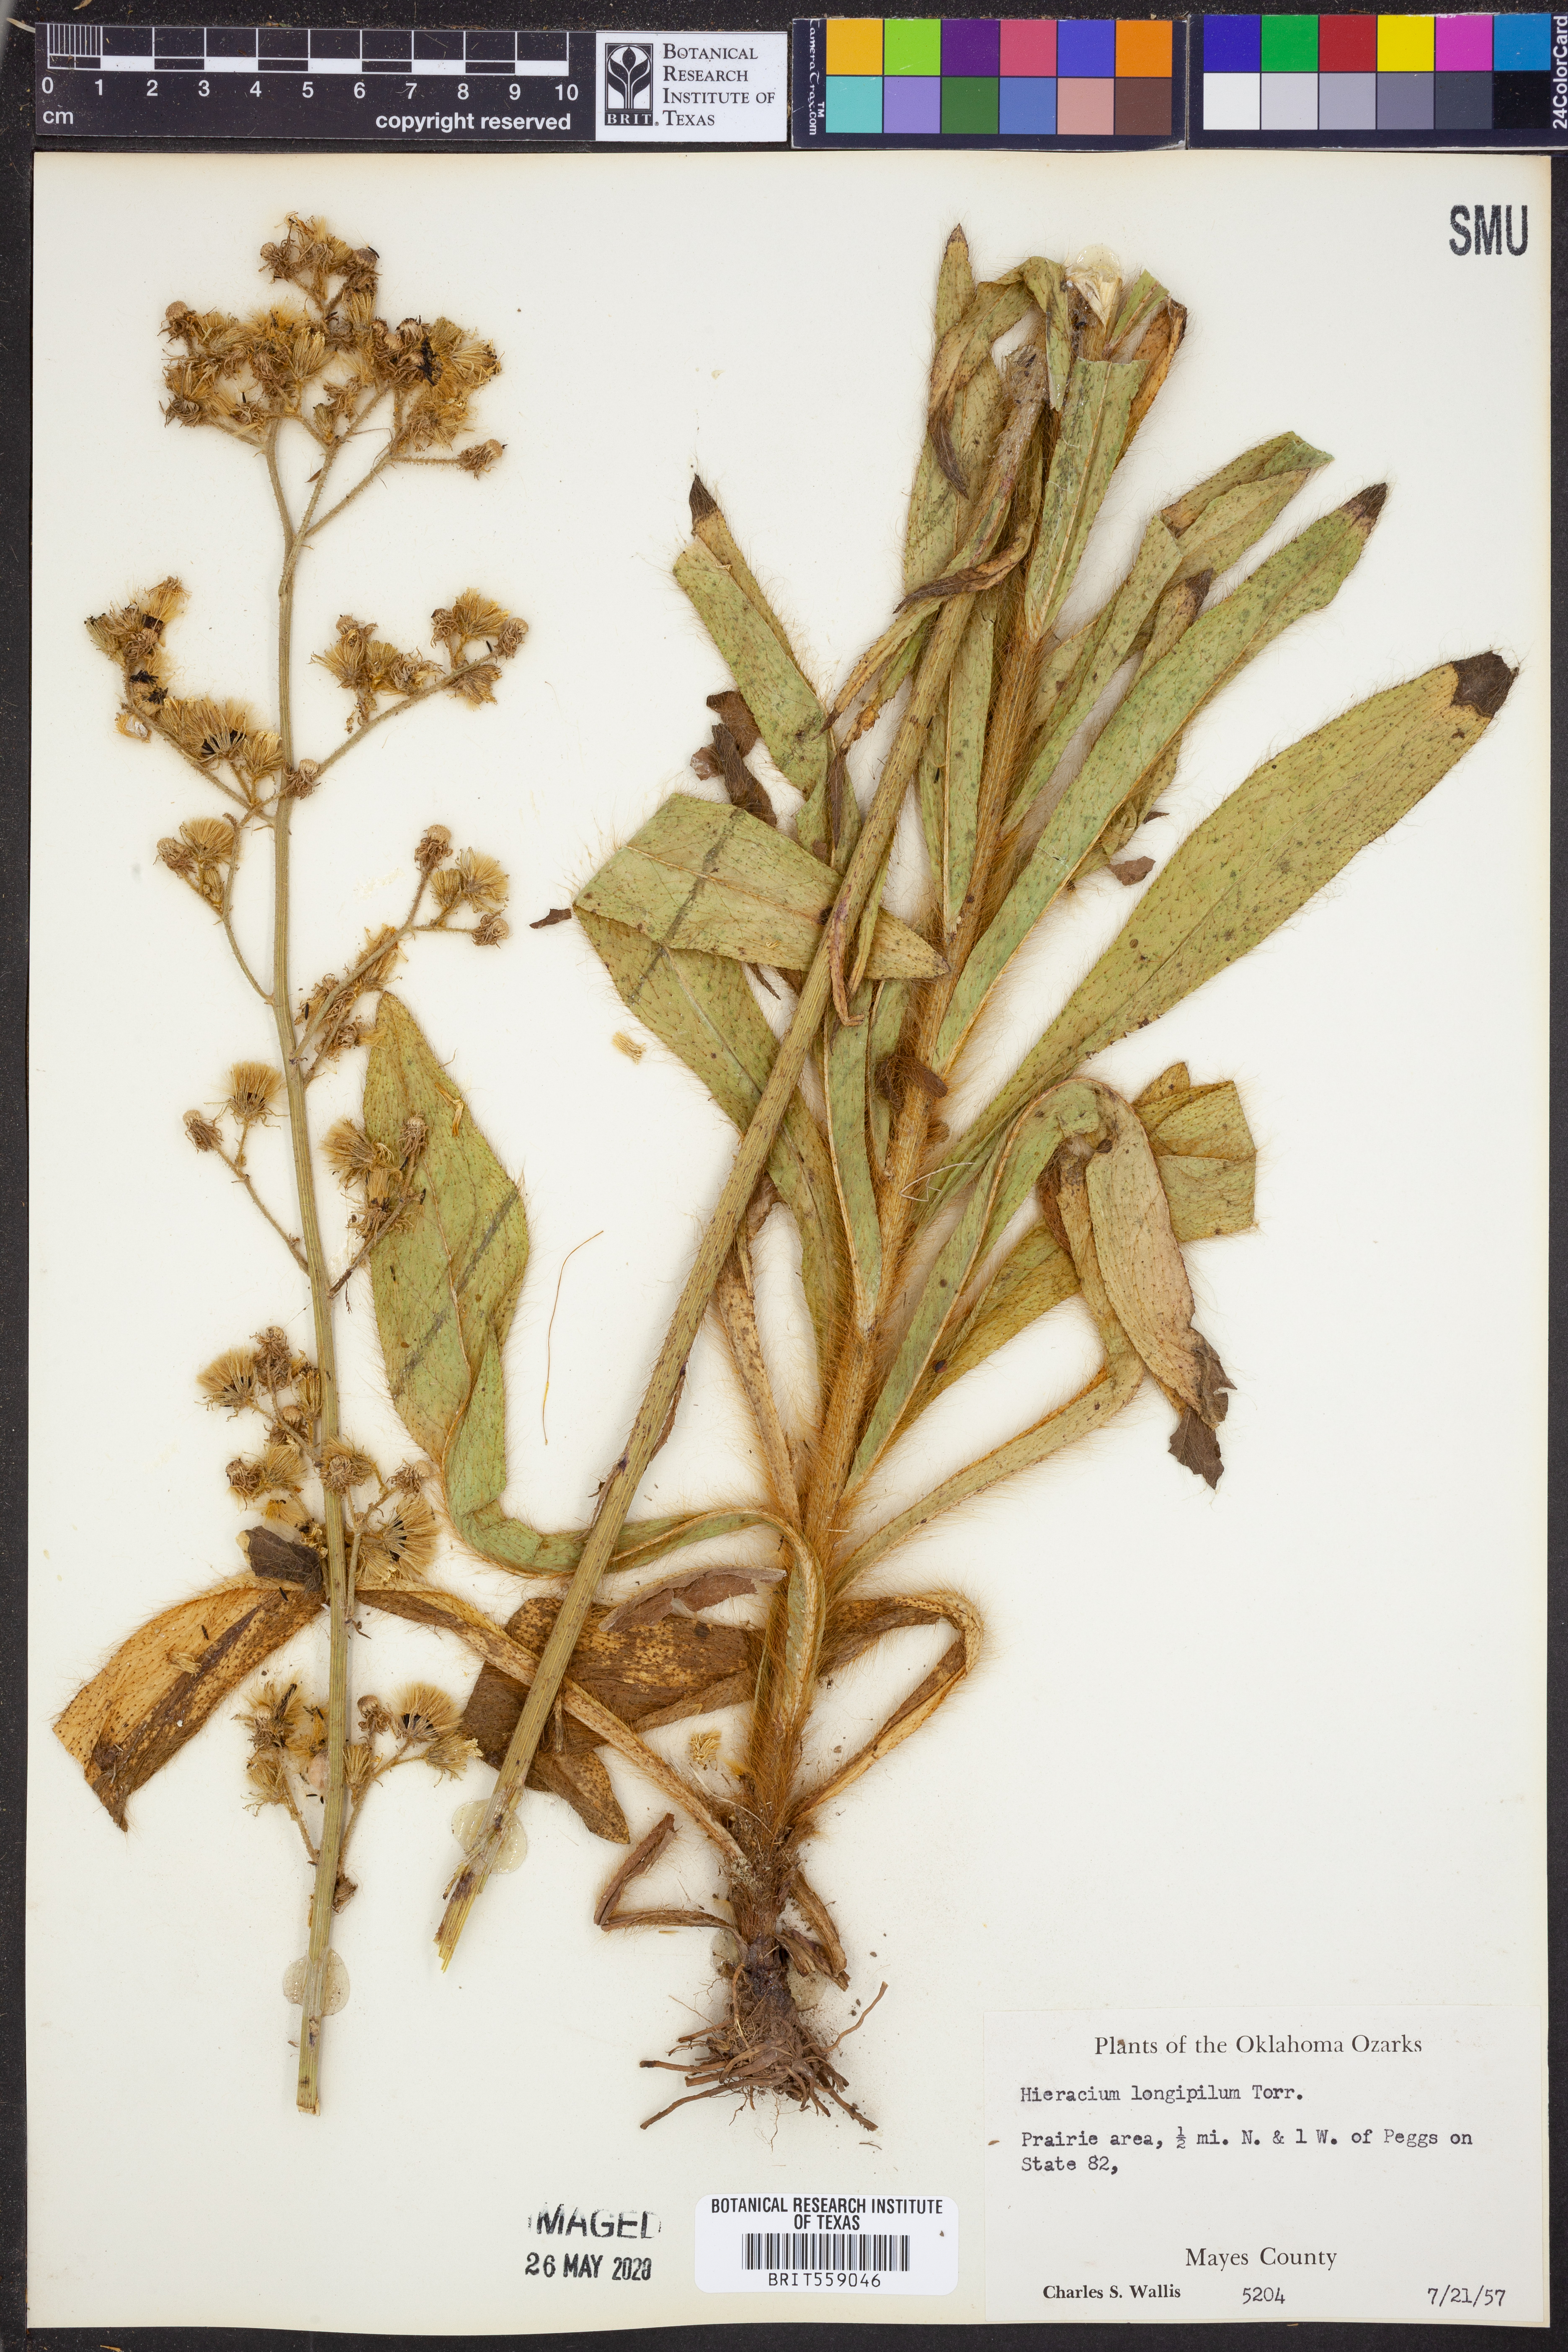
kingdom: Plantae
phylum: Tracheophyta
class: Magnoliopsida
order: Asterales
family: Asteraceae
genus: Hieracium
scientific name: Hieracium longipilum
